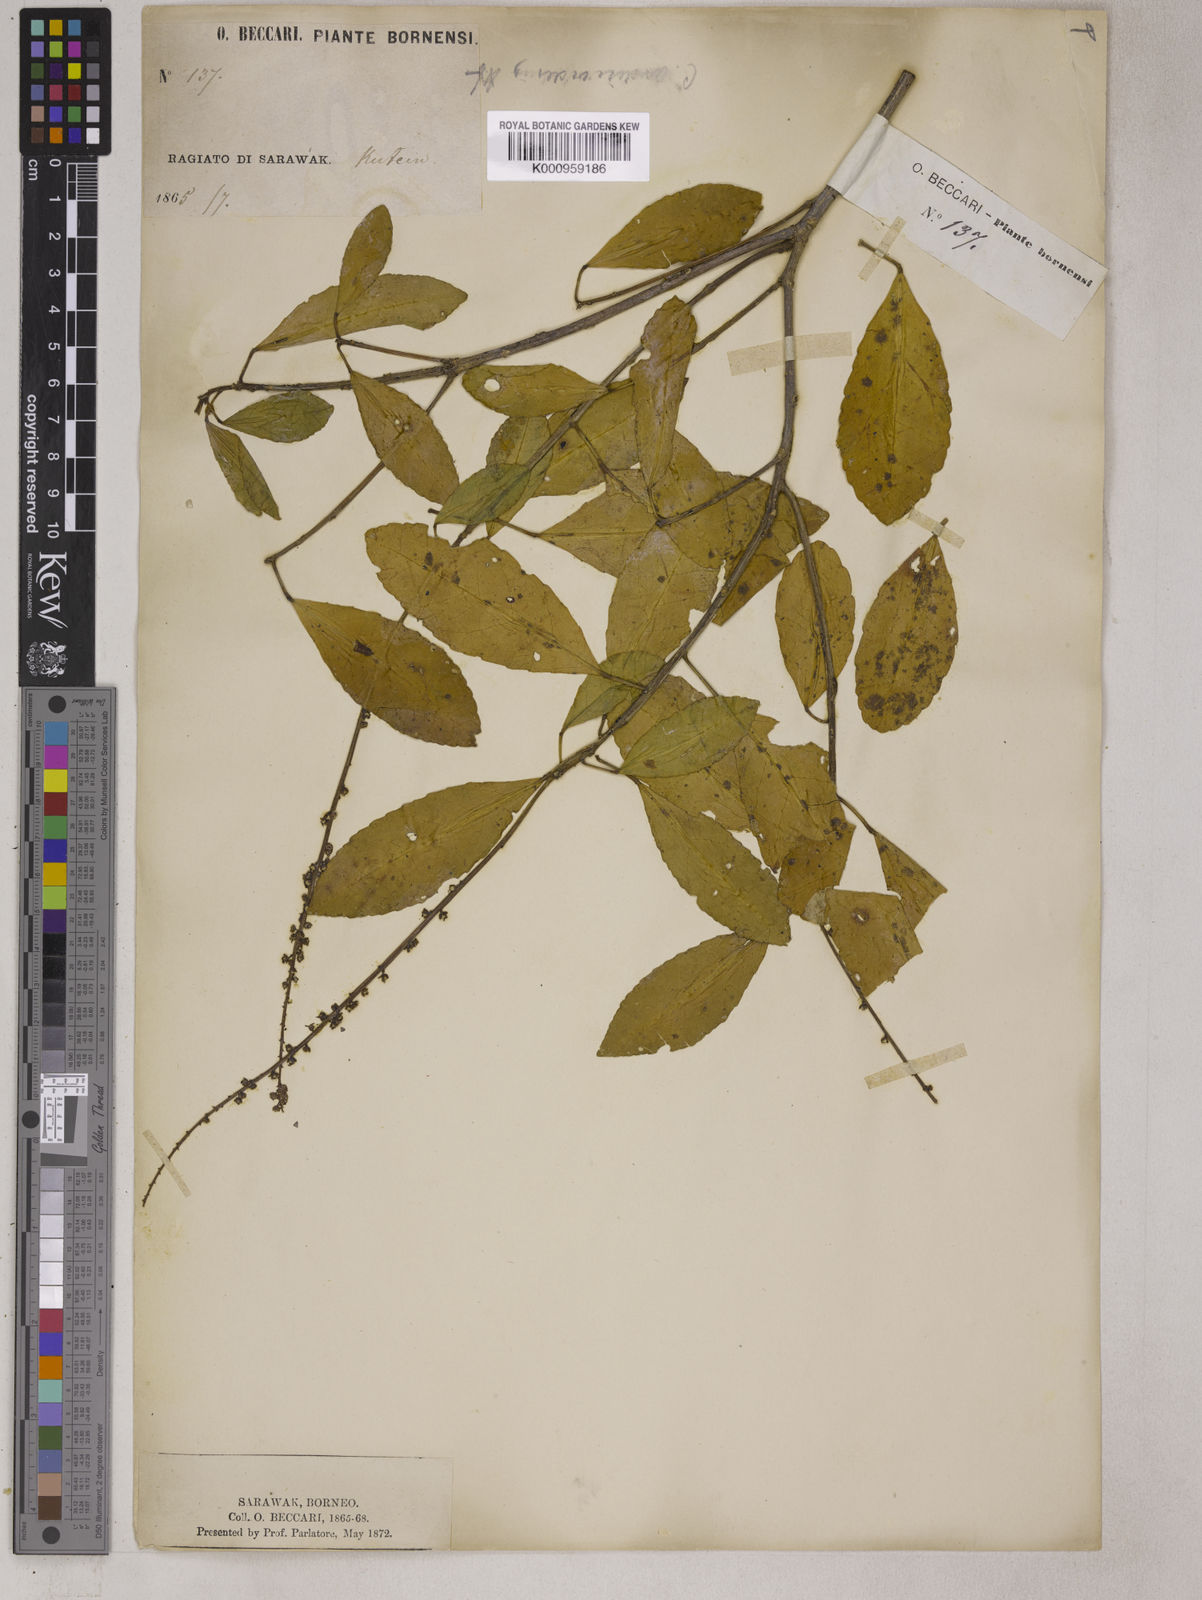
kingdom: Plantae
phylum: Tracheophyta
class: Magnoliopsida
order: Malpighiales
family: Euphorbiaceae
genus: Croton
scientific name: Croton
